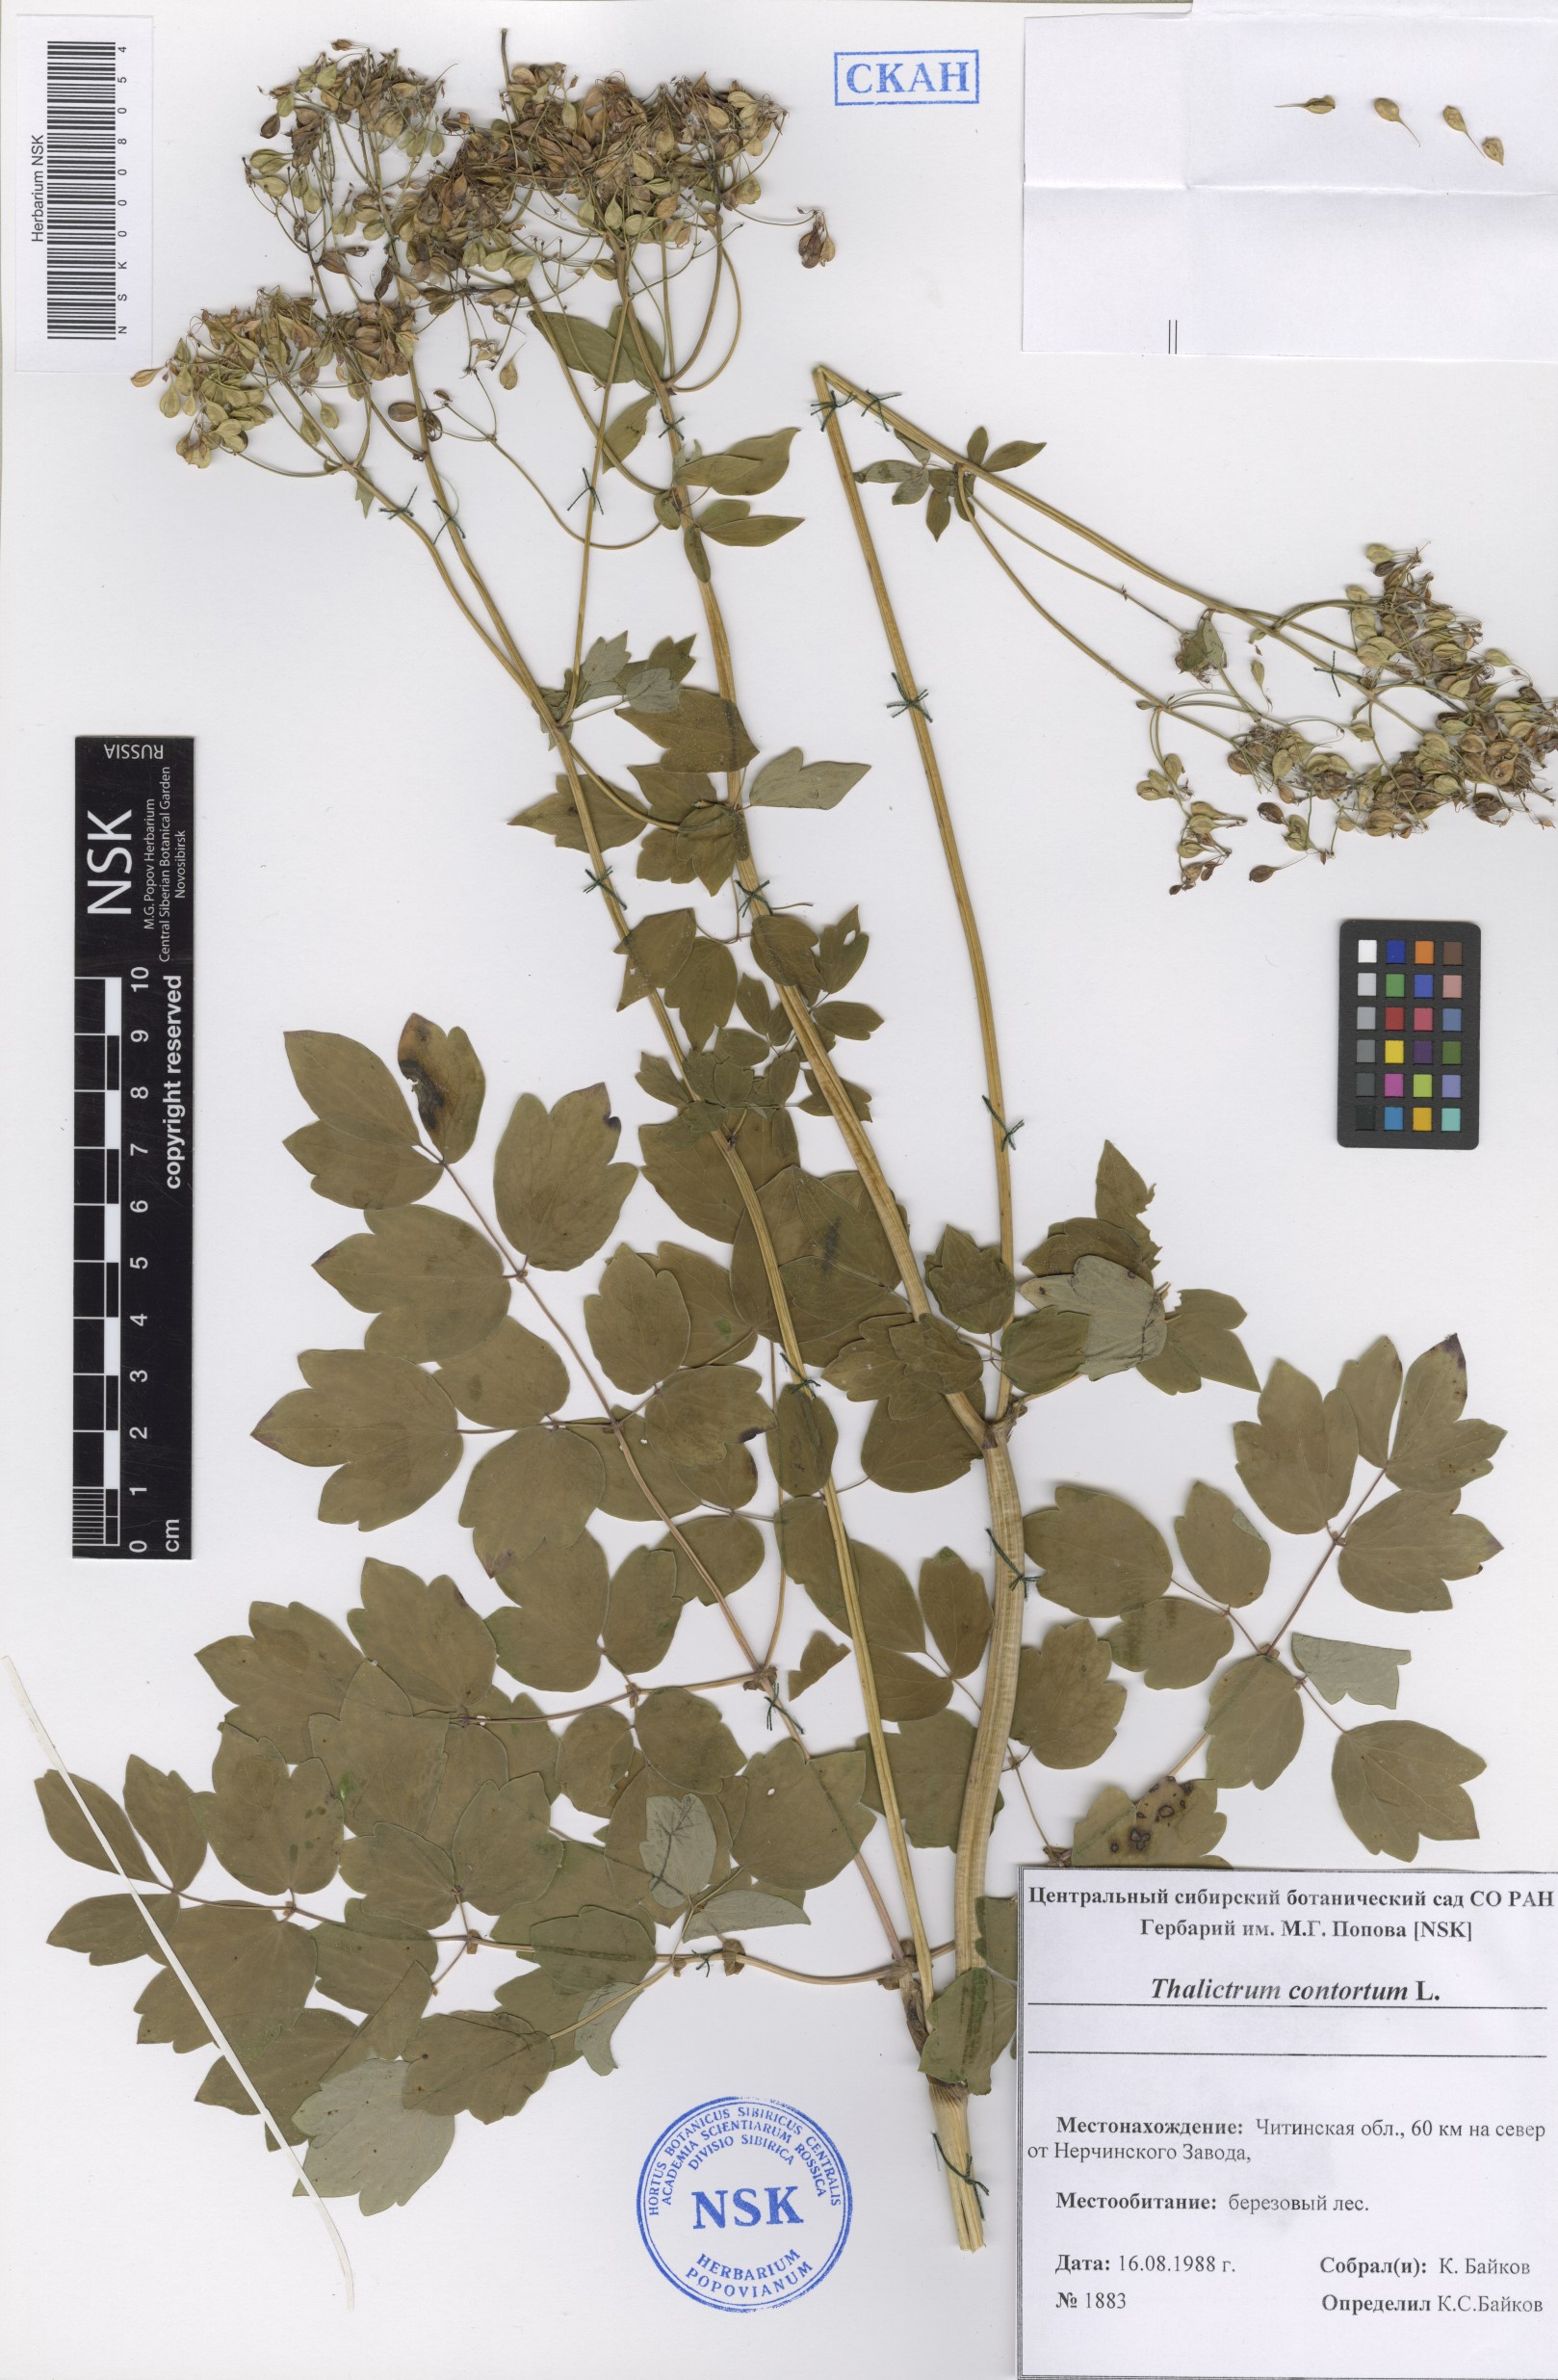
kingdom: Plantae
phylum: Tracheophyta
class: Magnoliopsida
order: Ranunculales
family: Ranunculaceae
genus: Thalictrum
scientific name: Thalictrum aquilegiifolium
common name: French meadow-rue
